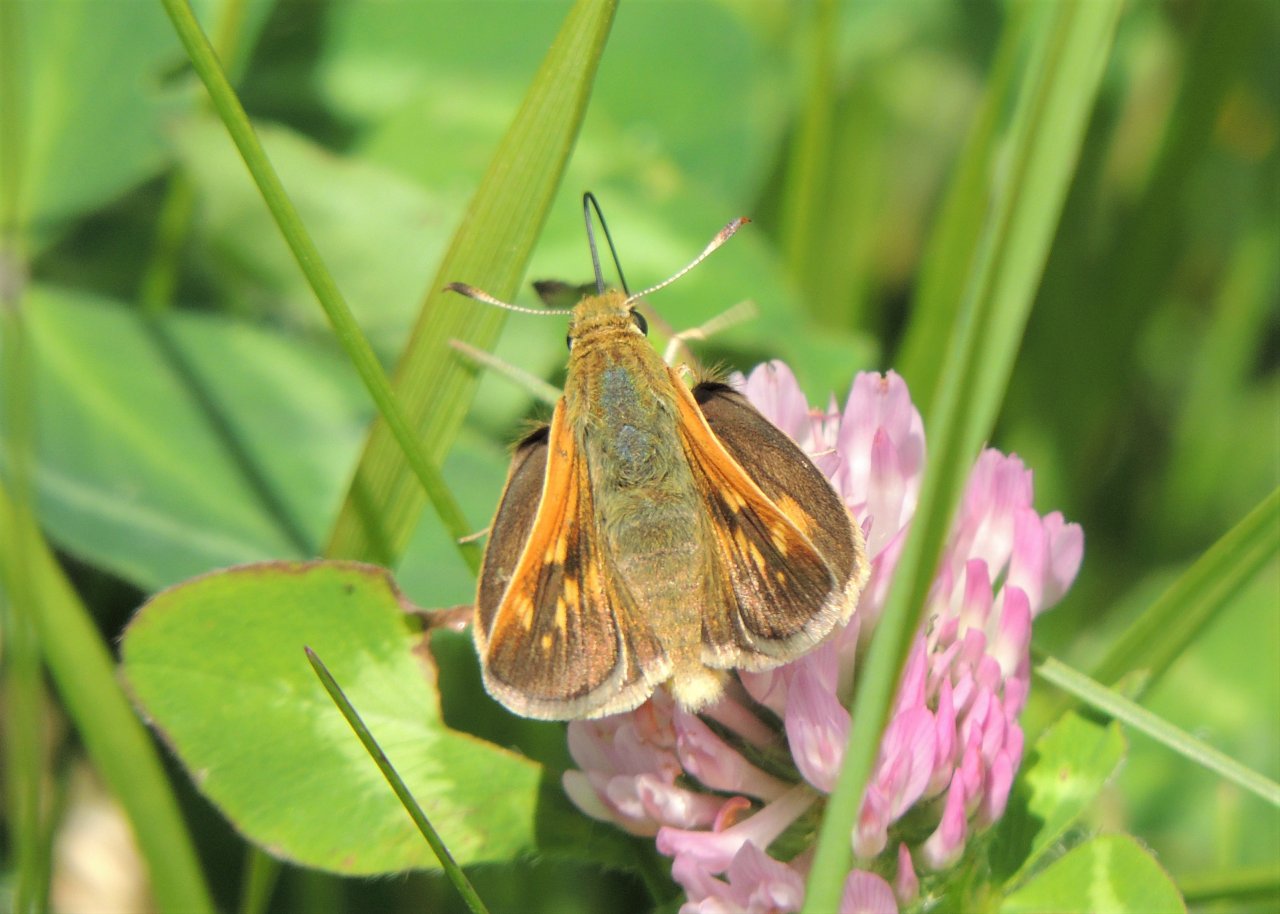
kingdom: Animalia
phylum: Arthropoda
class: Insecta
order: Lepidoptera
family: Hesperiidae
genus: Hesperia
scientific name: Hesperia juba
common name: Juba Skipper
